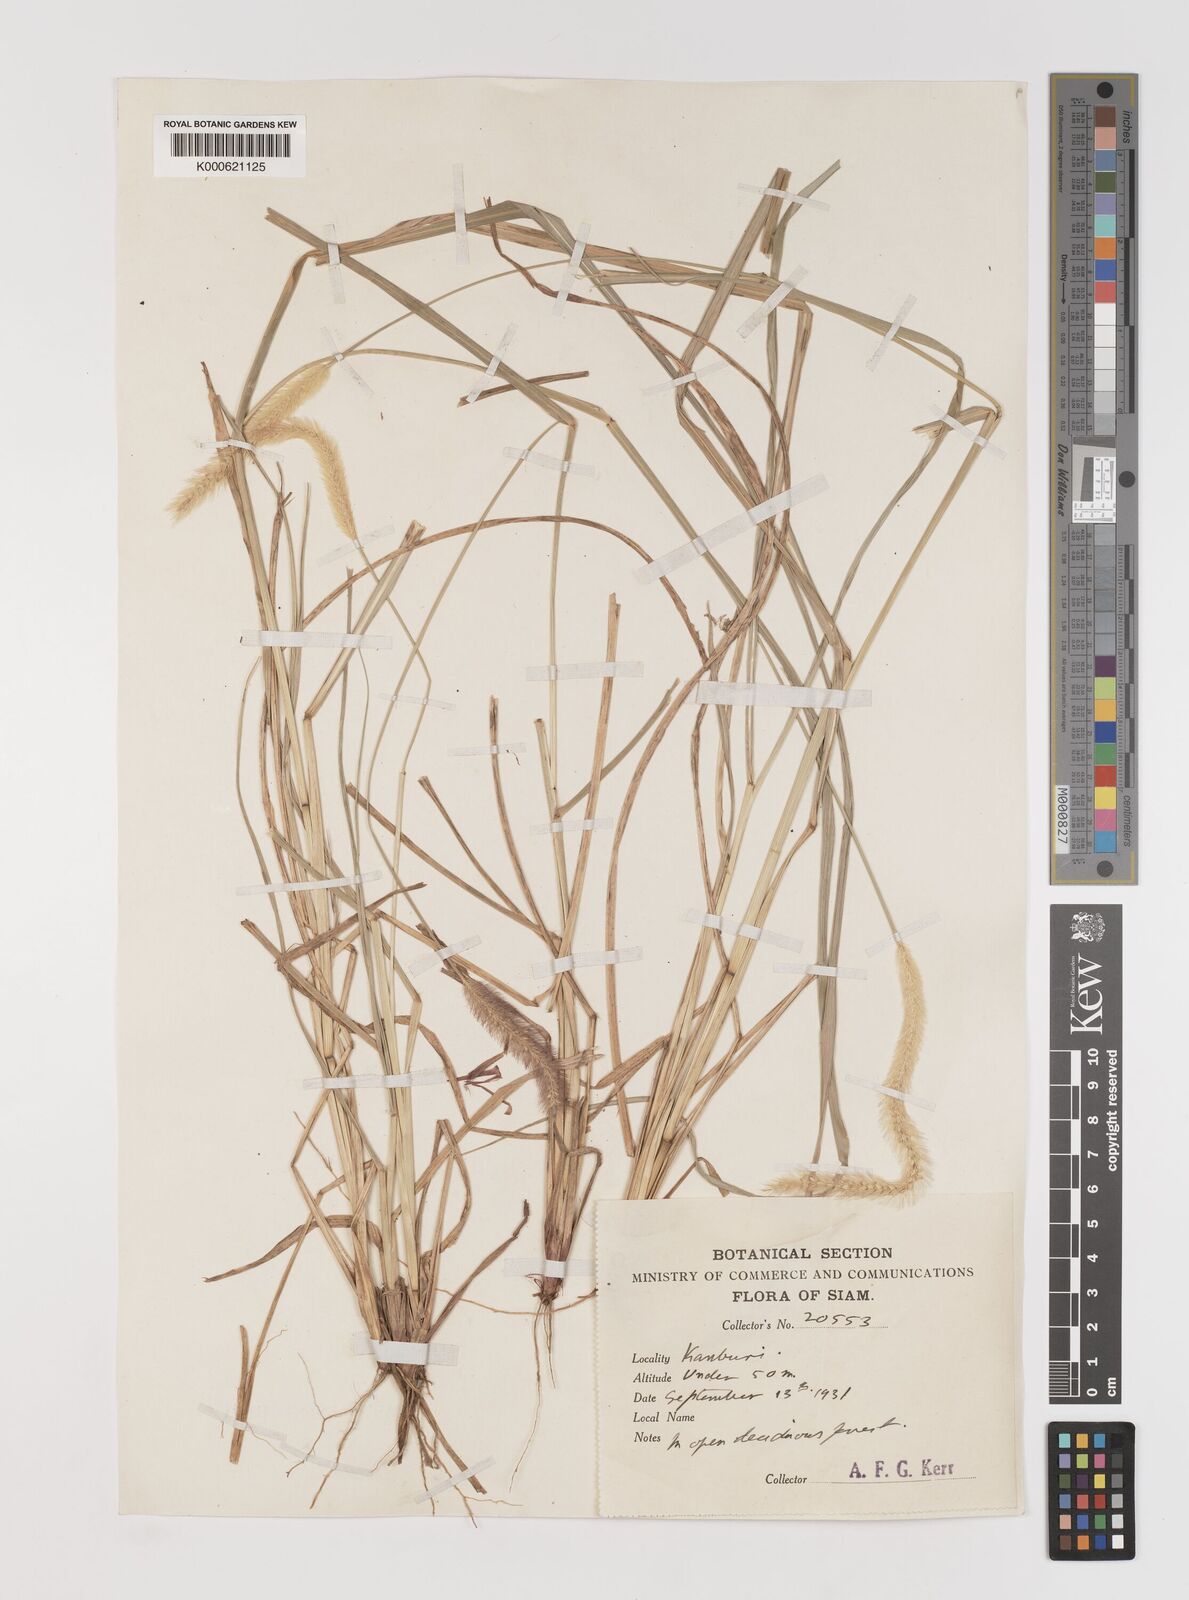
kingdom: Plantae
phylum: Tracheophyta
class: Liliopsida
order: Poales
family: Poaceae
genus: Setaria
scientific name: Setaria italica
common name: Foxtail bristle-grass
